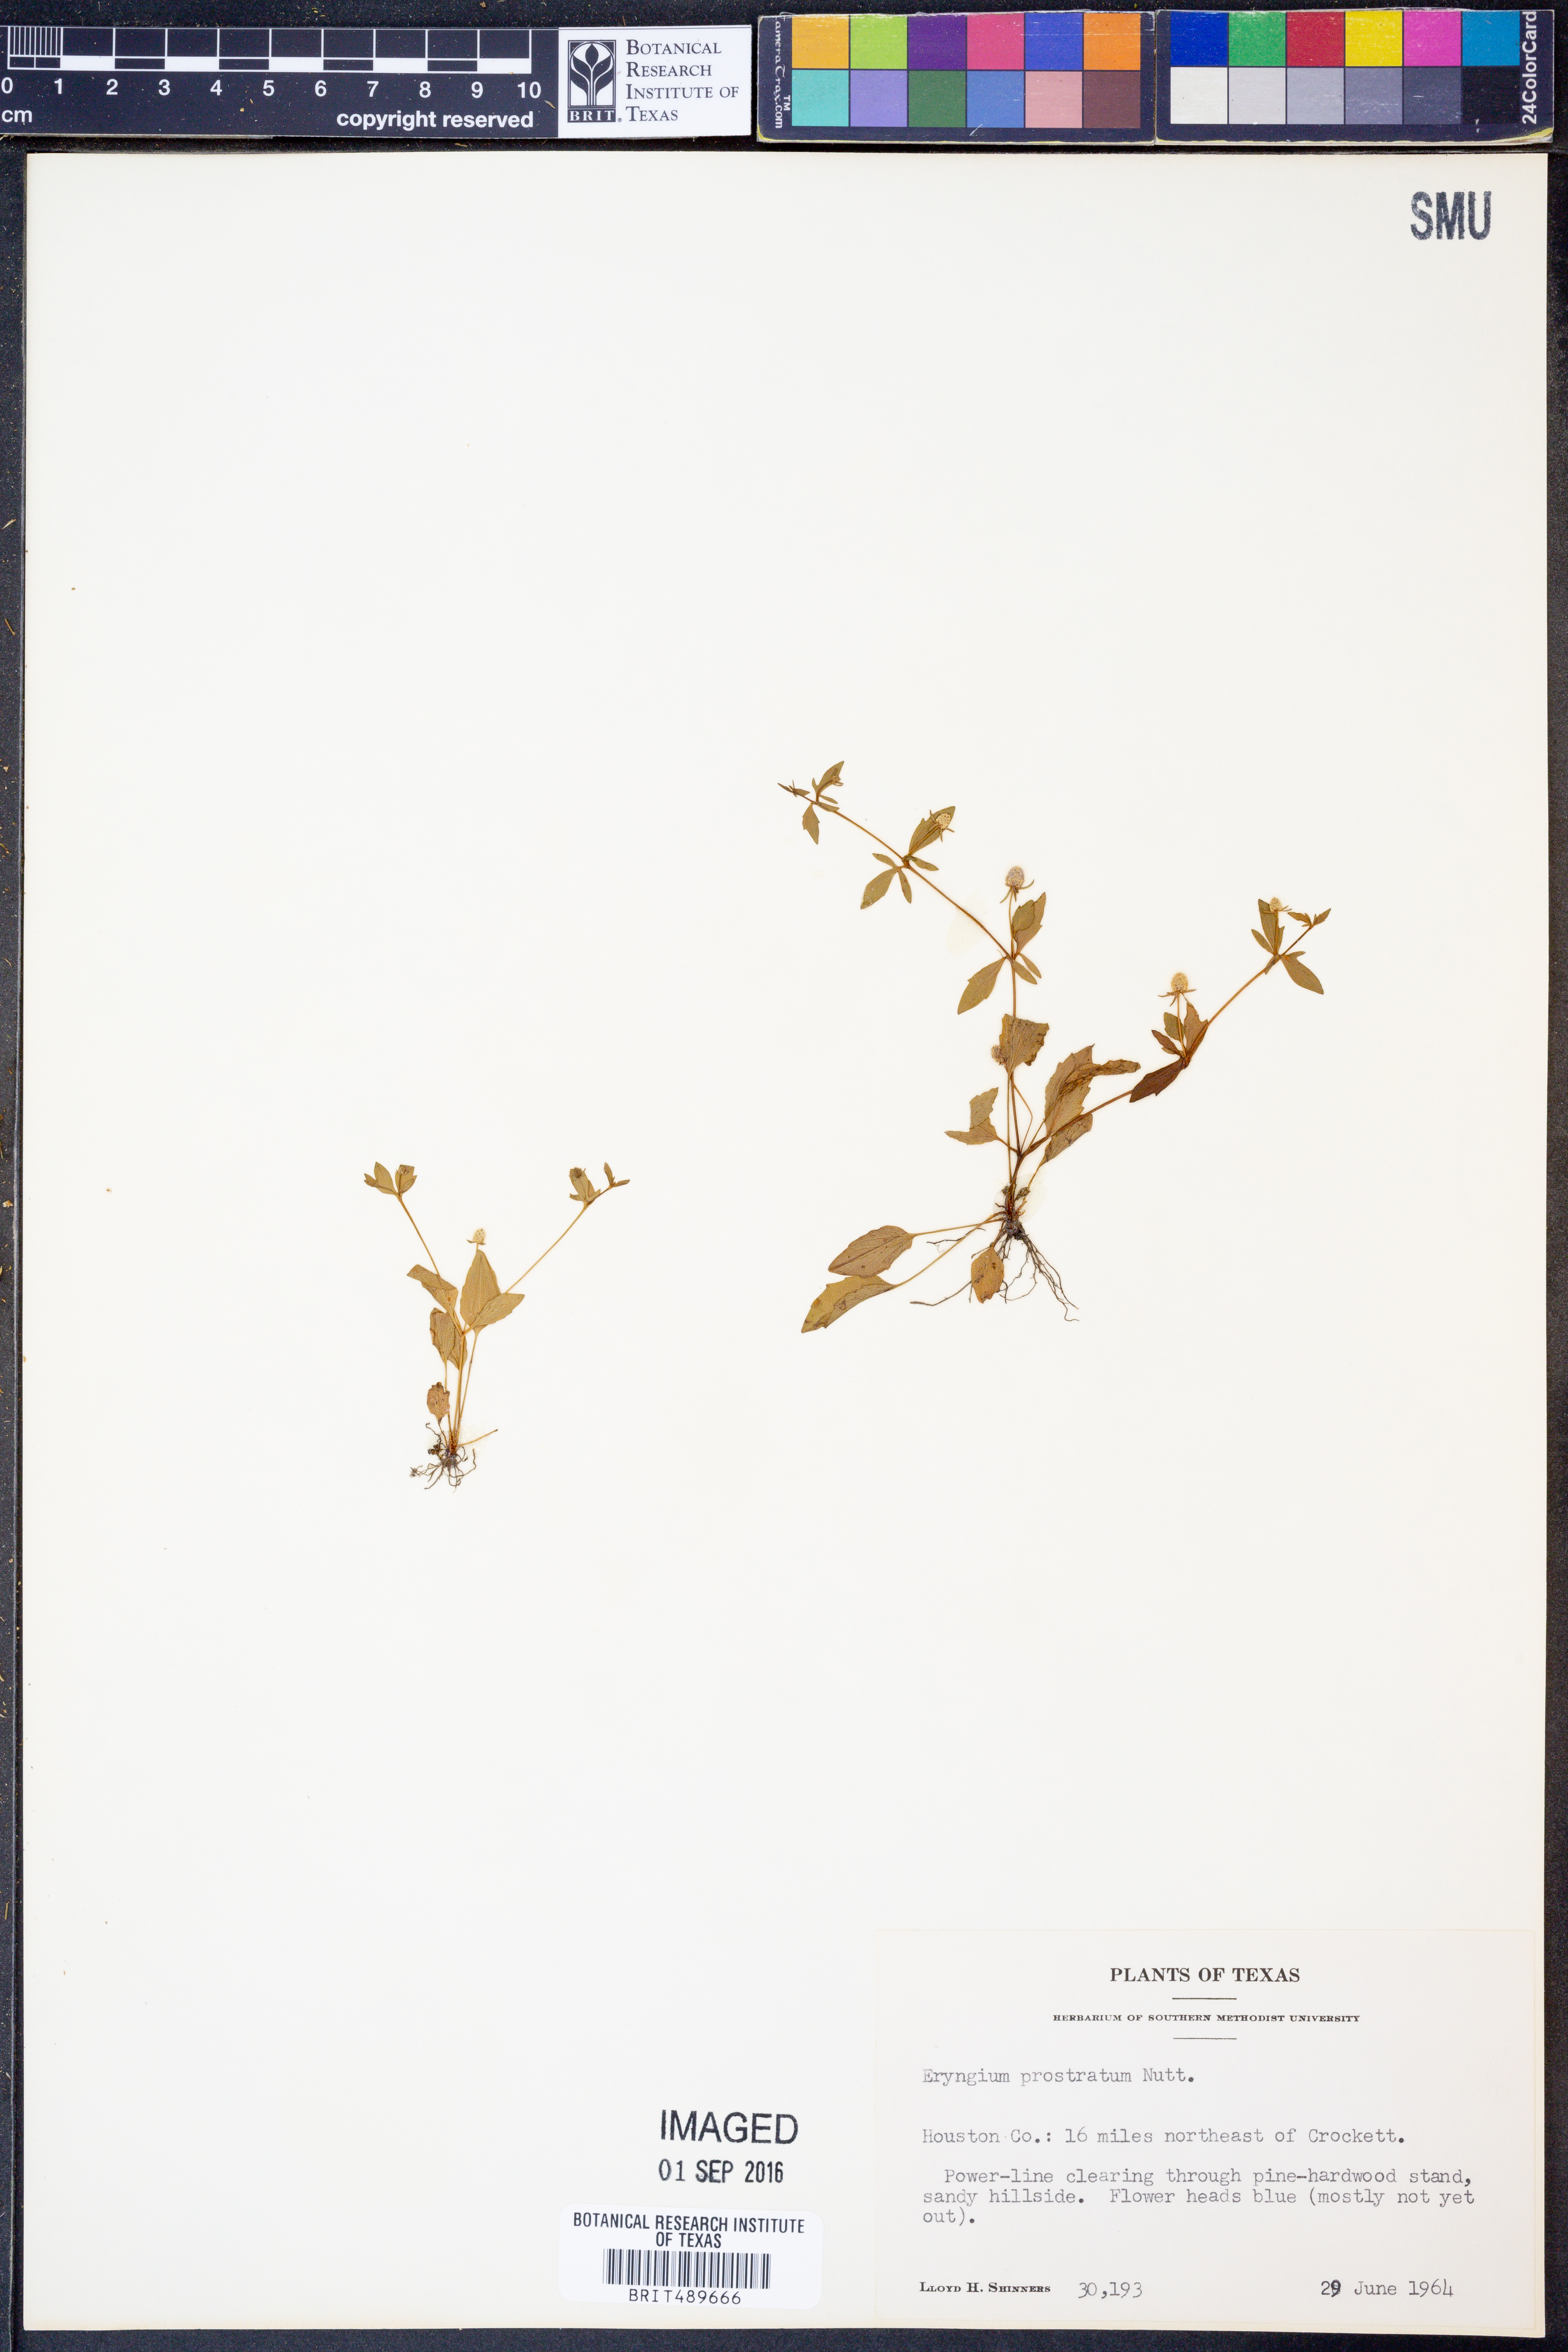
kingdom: Plantae
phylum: Tracheophyta
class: Magnoliopsida
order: Apiales
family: Apiaceae
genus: Eryngium
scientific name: Eryngium prostratum
